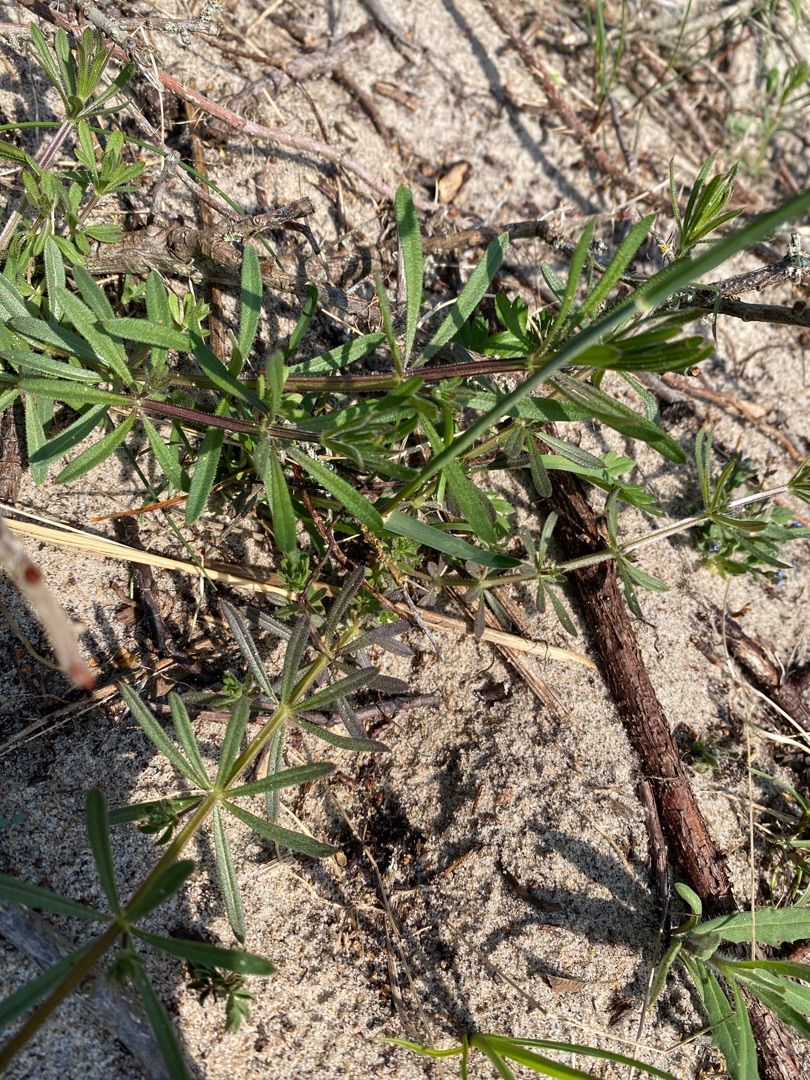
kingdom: Plantae
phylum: Tracheophyta
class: Magnoliopsida
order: Gentianales
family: Rubiaceae
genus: Galium
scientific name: Galium aparine
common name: Burre-snerre
